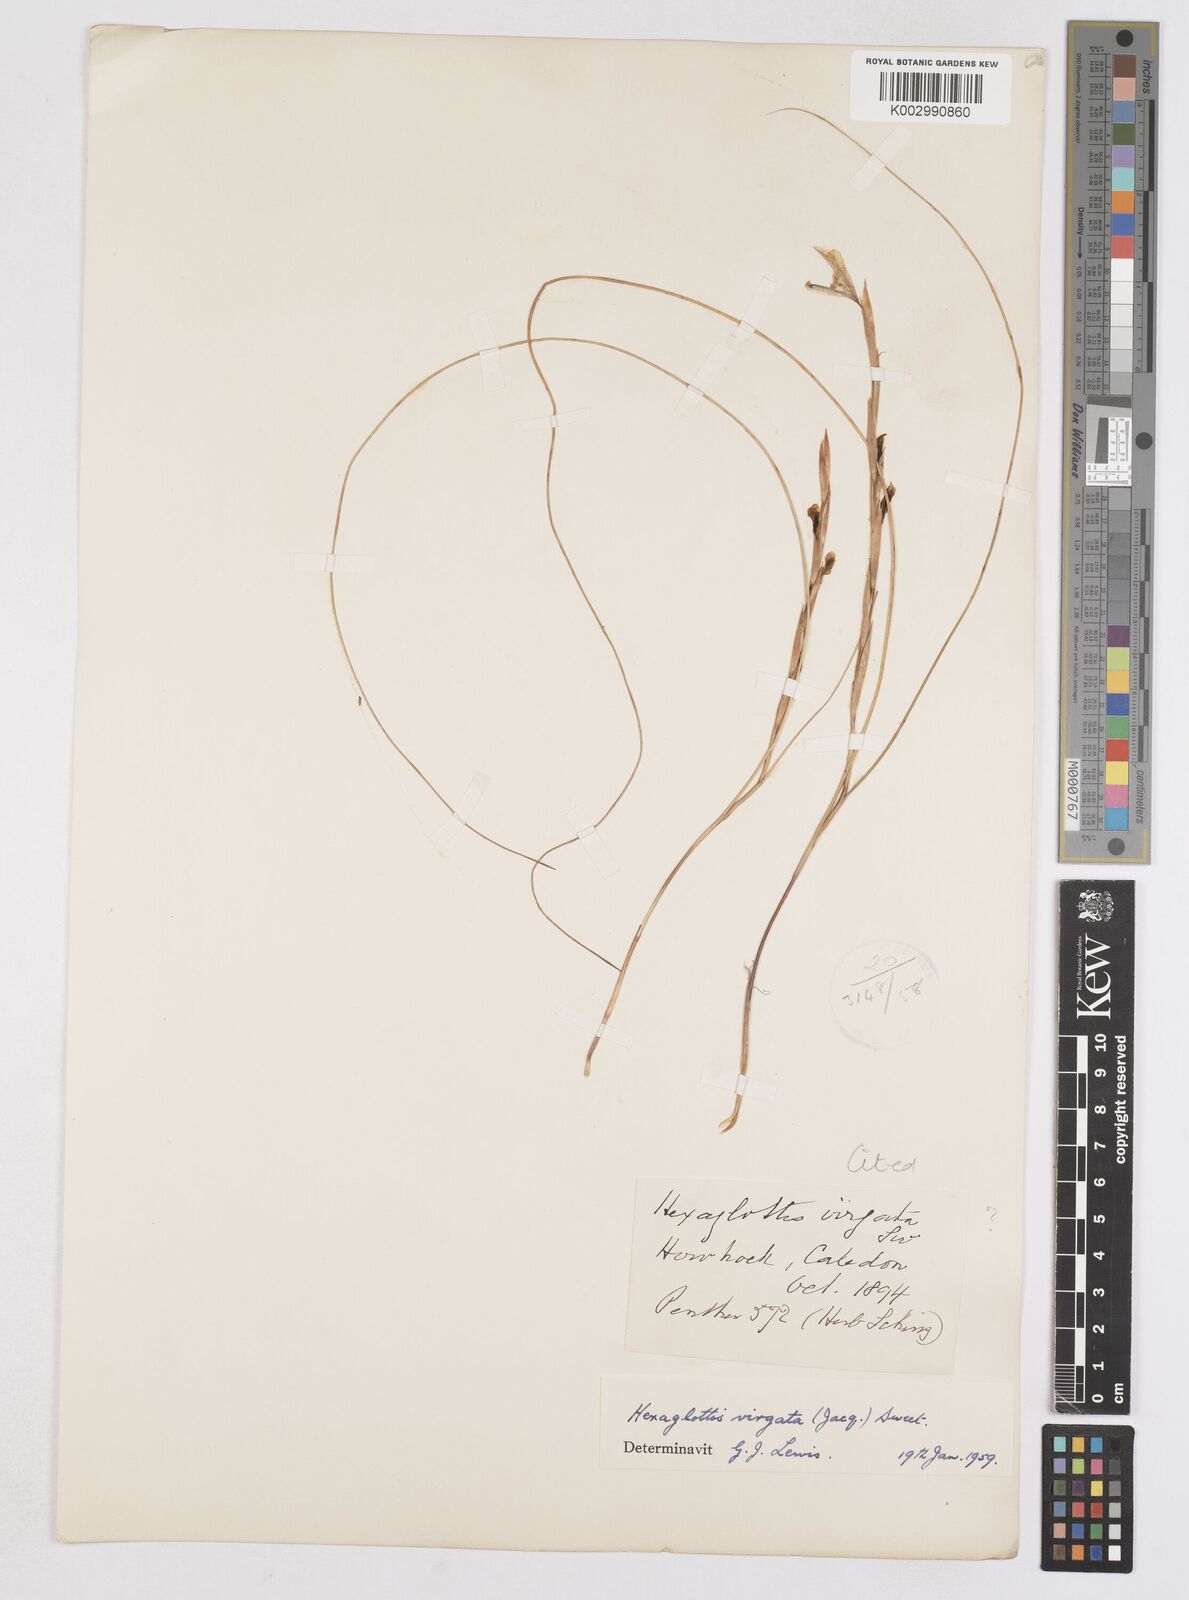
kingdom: Plantae
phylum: Tracheophyta
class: Liliopsida
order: Asparagales
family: Iridaceae
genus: Moraea
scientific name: Moraea virgata
